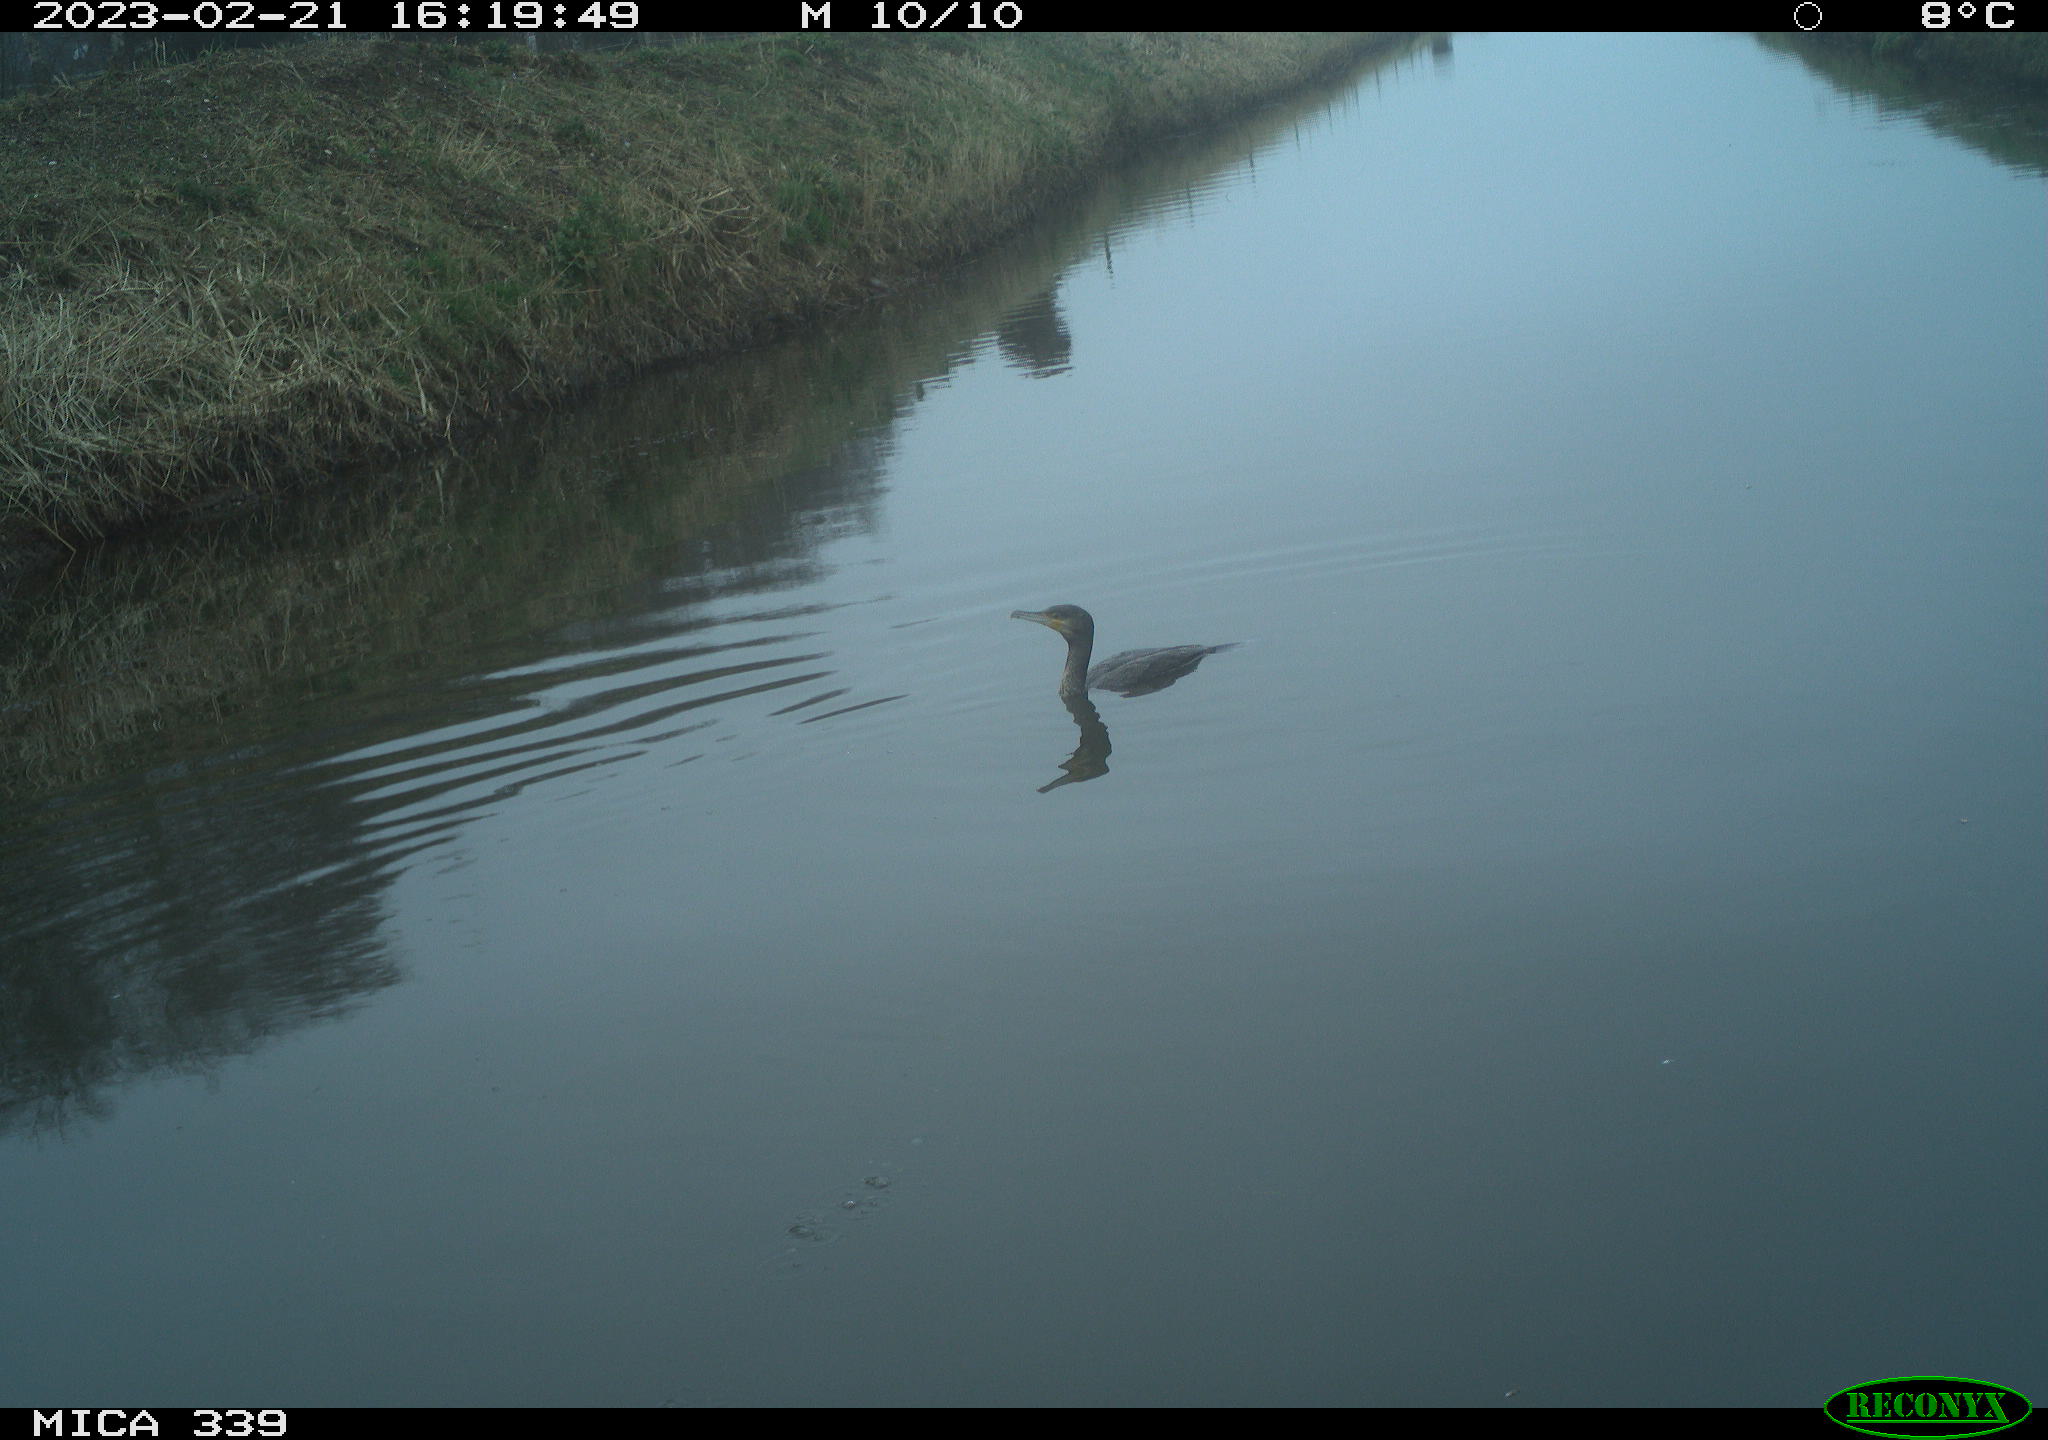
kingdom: Animalia
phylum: Chordata
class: Aves
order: Suliformes
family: Phalacrocoracidae
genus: Phalacrocorax
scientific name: Phalacrocorax carbo
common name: Great cormorant
